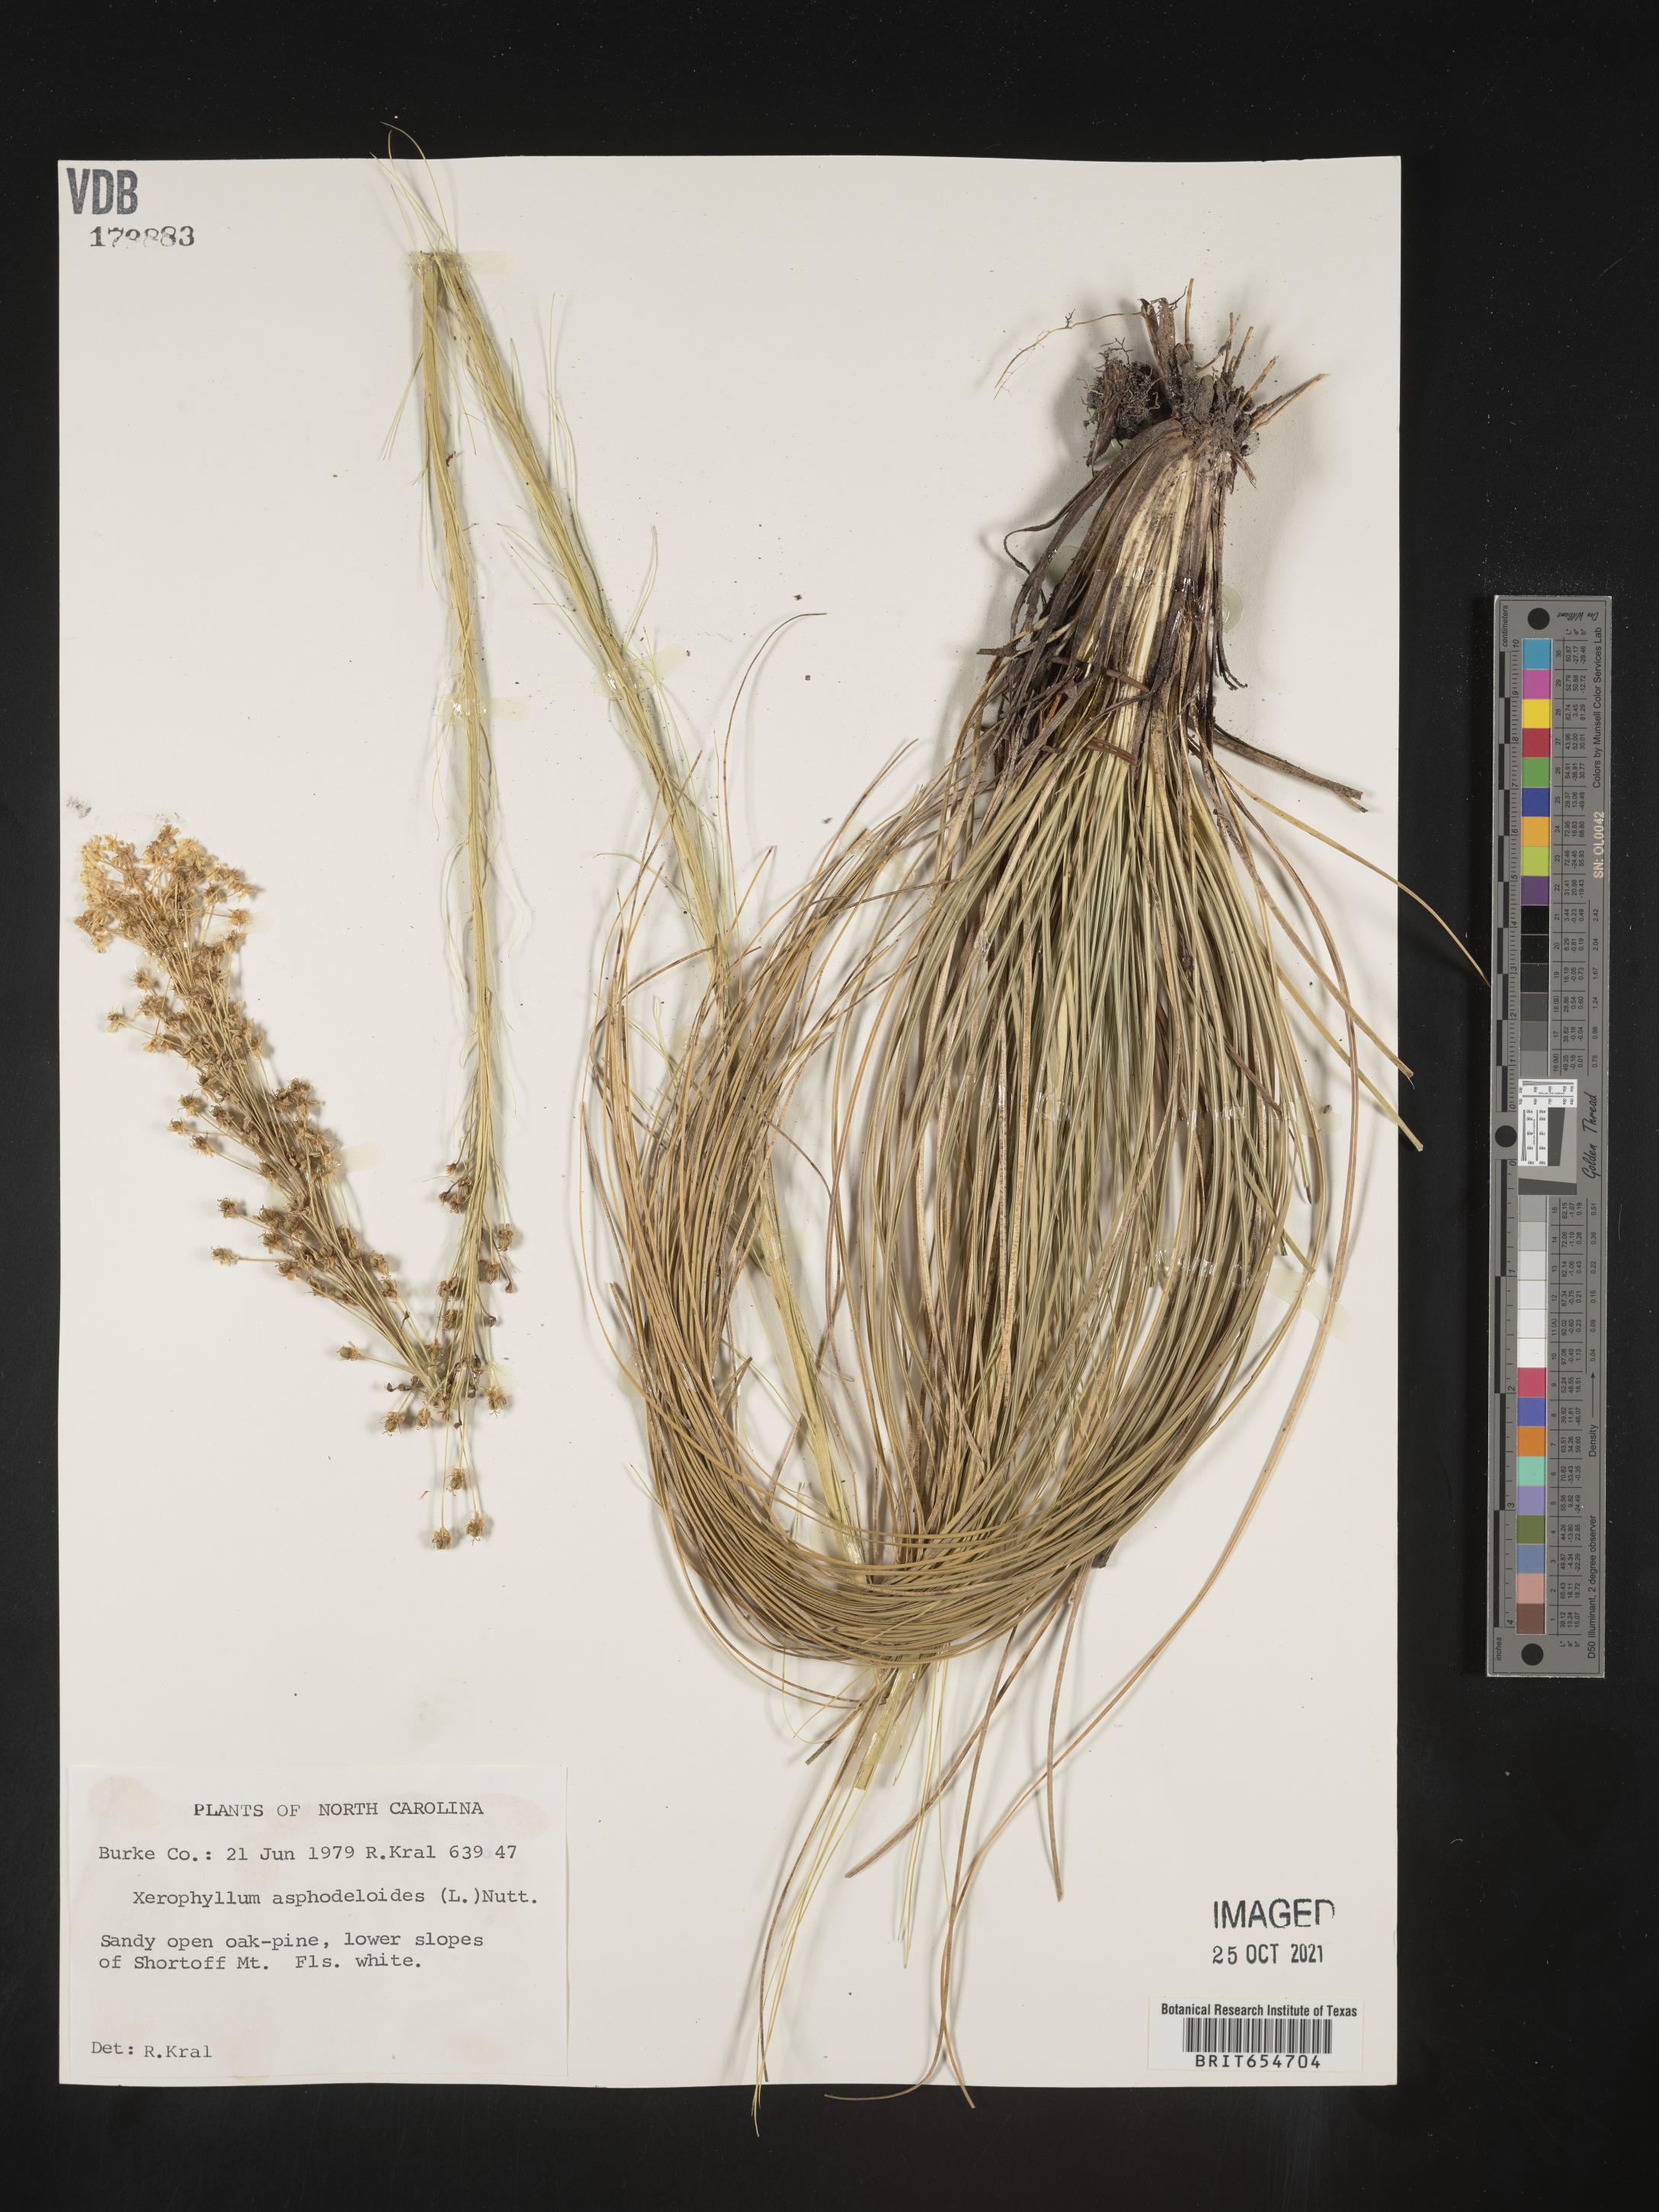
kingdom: Plantae
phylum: Tracheophyta
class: Liliopsida
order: Liliales
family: Melanthiaceae
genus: Xerophyllum
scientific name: Xerophyllum
